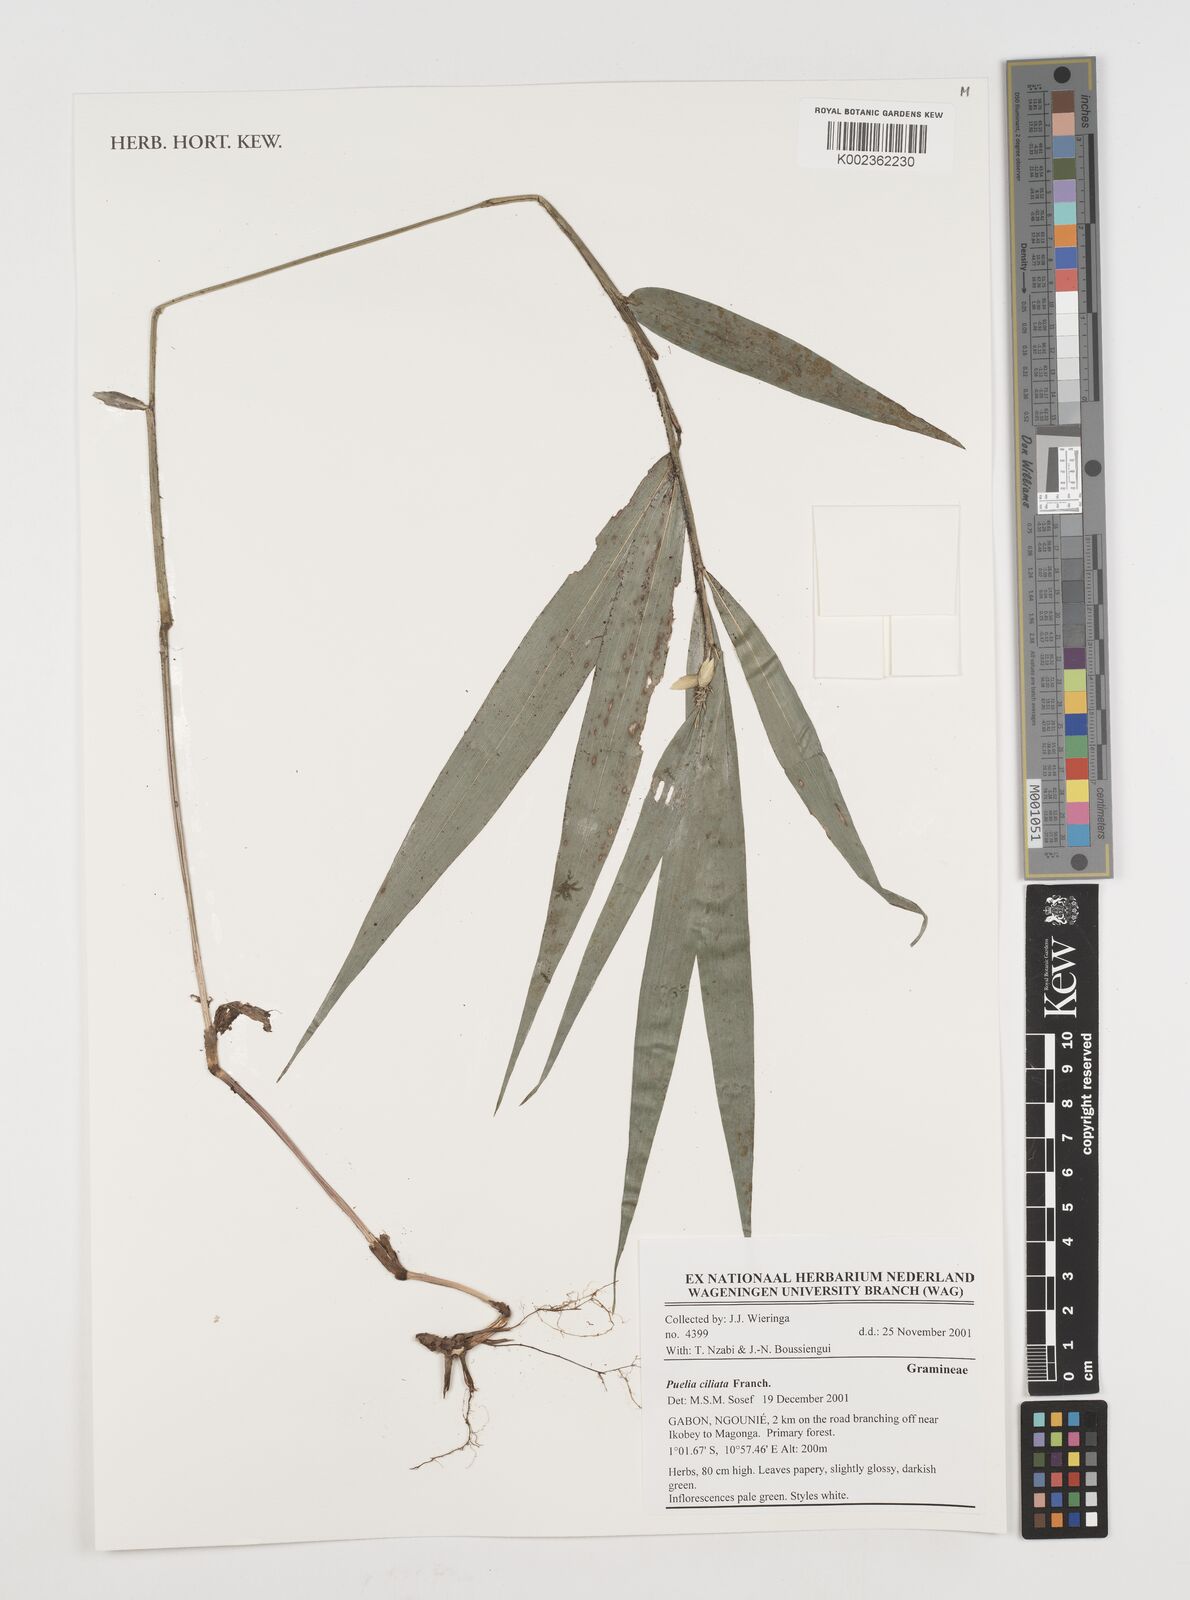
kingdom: Plantae
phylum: Tracheophyta
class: Liliopsida
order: Poales
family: Poaceae
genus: Puelia
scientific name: Puelia ciliata
